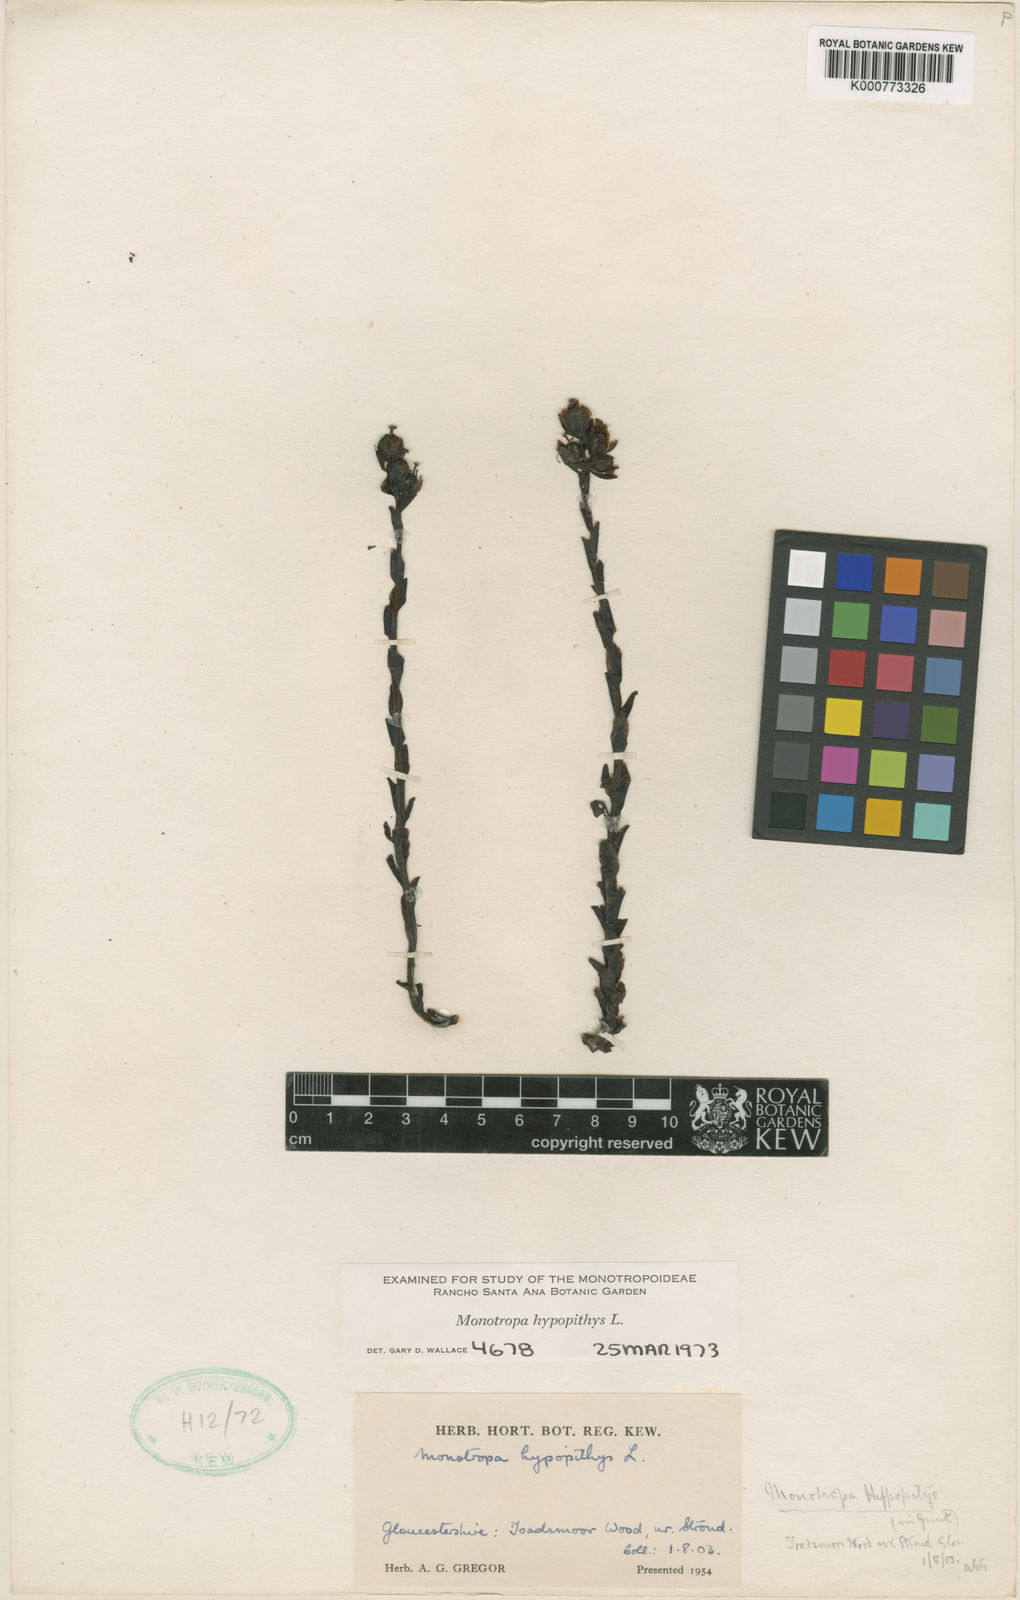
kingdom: Plantae
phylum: Tracheophyta
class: Magnoliopsida
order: Ericales
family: Ericaceae
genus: Monotropa
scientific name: Monotropa
